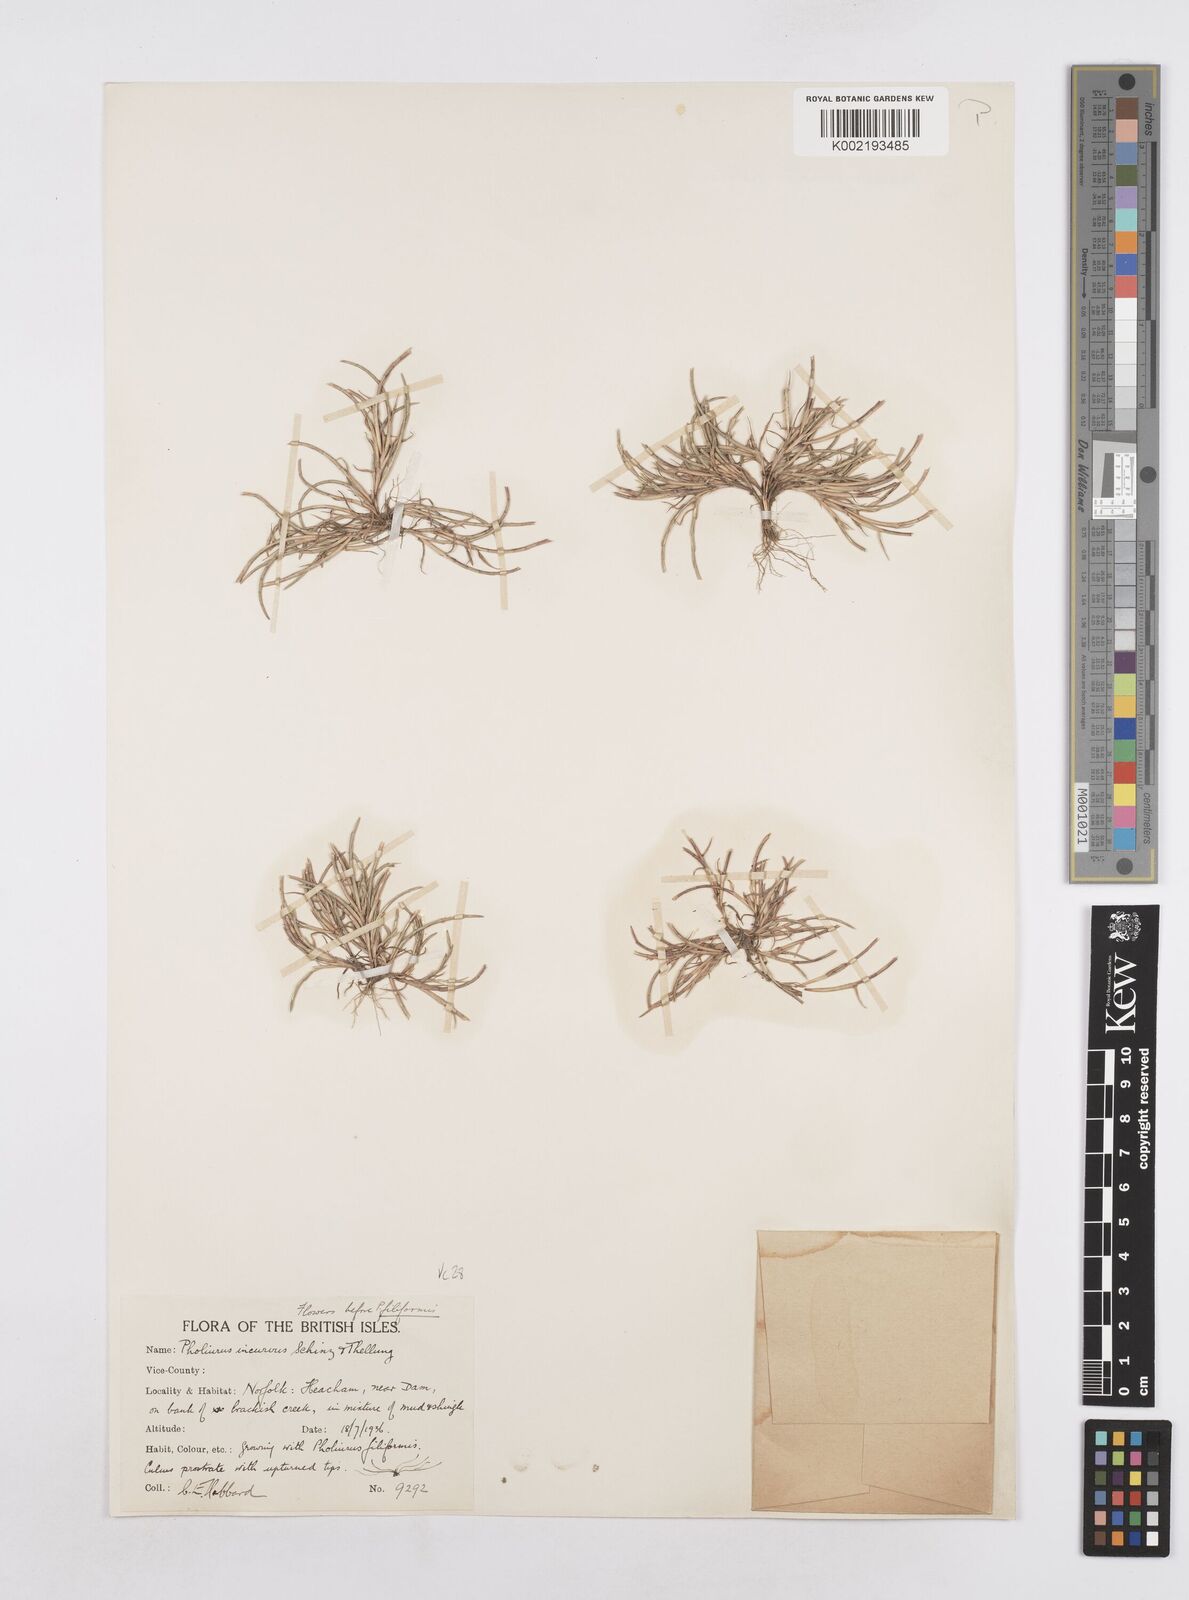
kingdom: Plantae
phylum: Tracheophyta
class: Liliopsida
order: Poales
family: Poaceae
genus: Parapholis
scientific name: Parapholis incurva
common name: Curved sicklegrass
